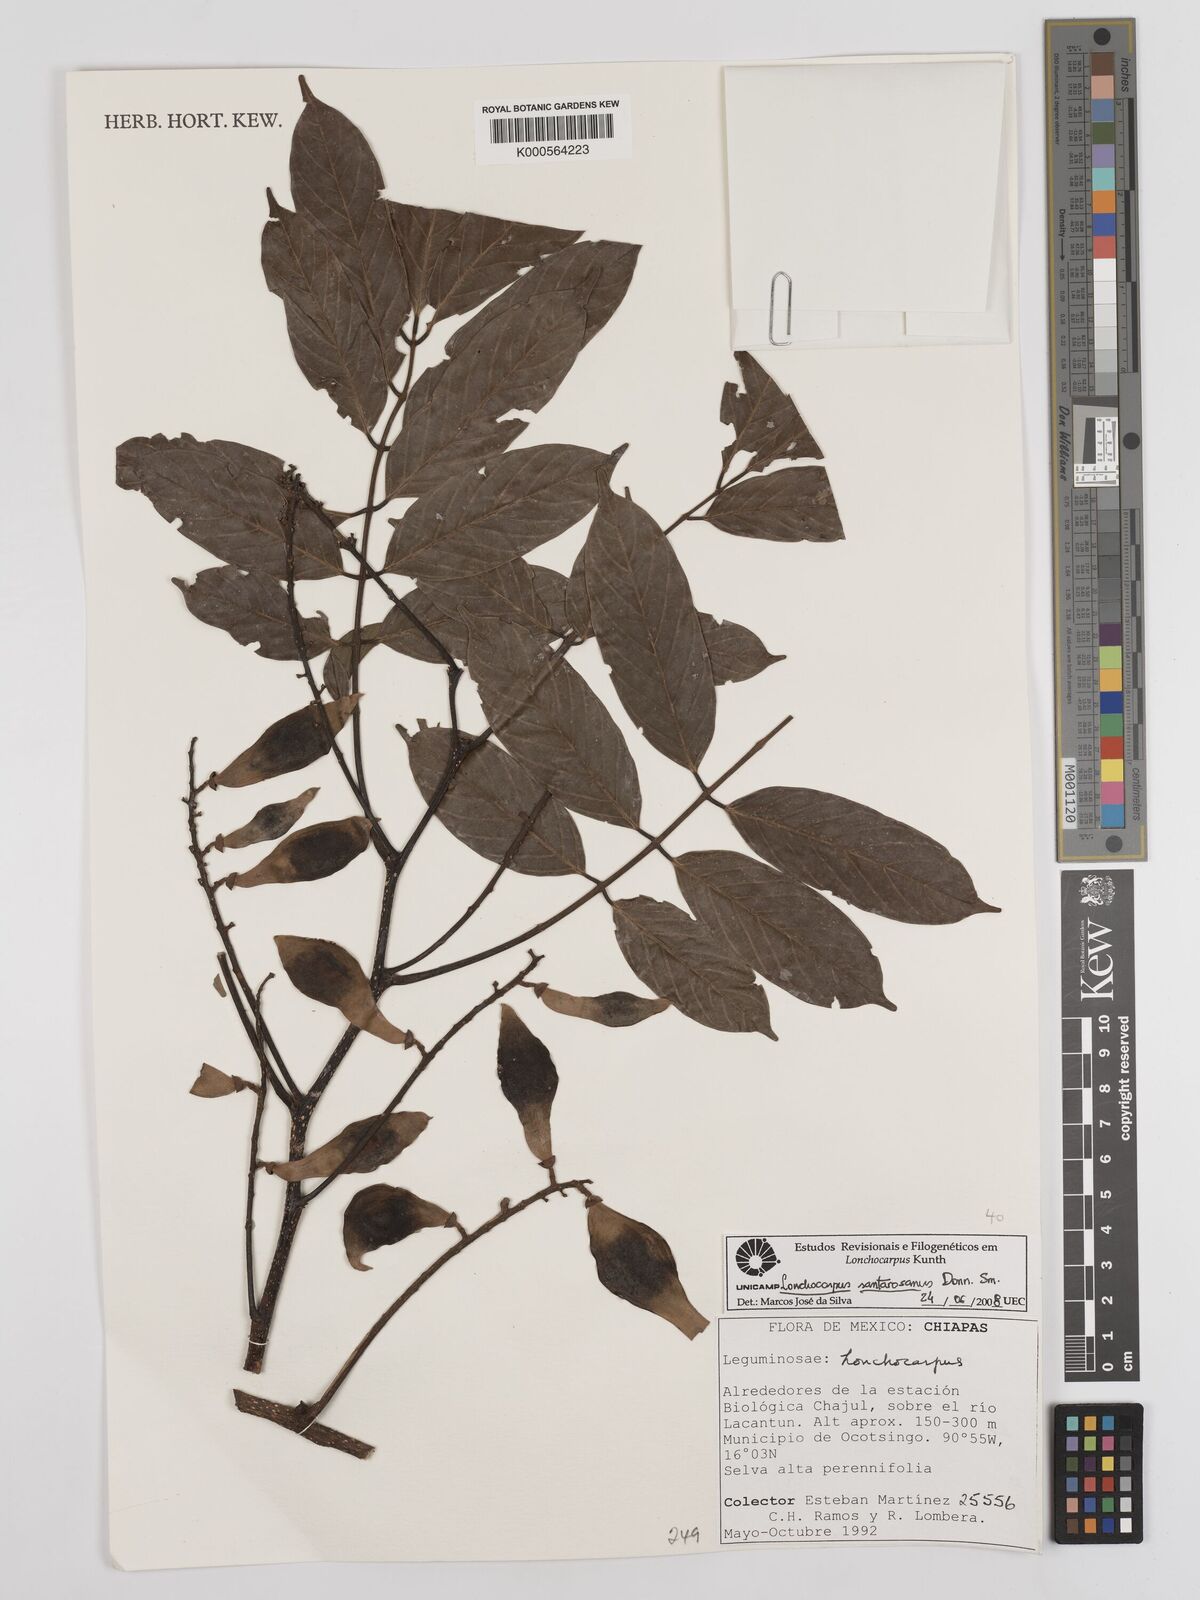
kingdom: Plantae
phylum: Tracheophyta
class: Magnoliopsida
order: Fabales
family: Fabaceae
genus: Lonchocarpus
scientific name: Lonchocarpus
